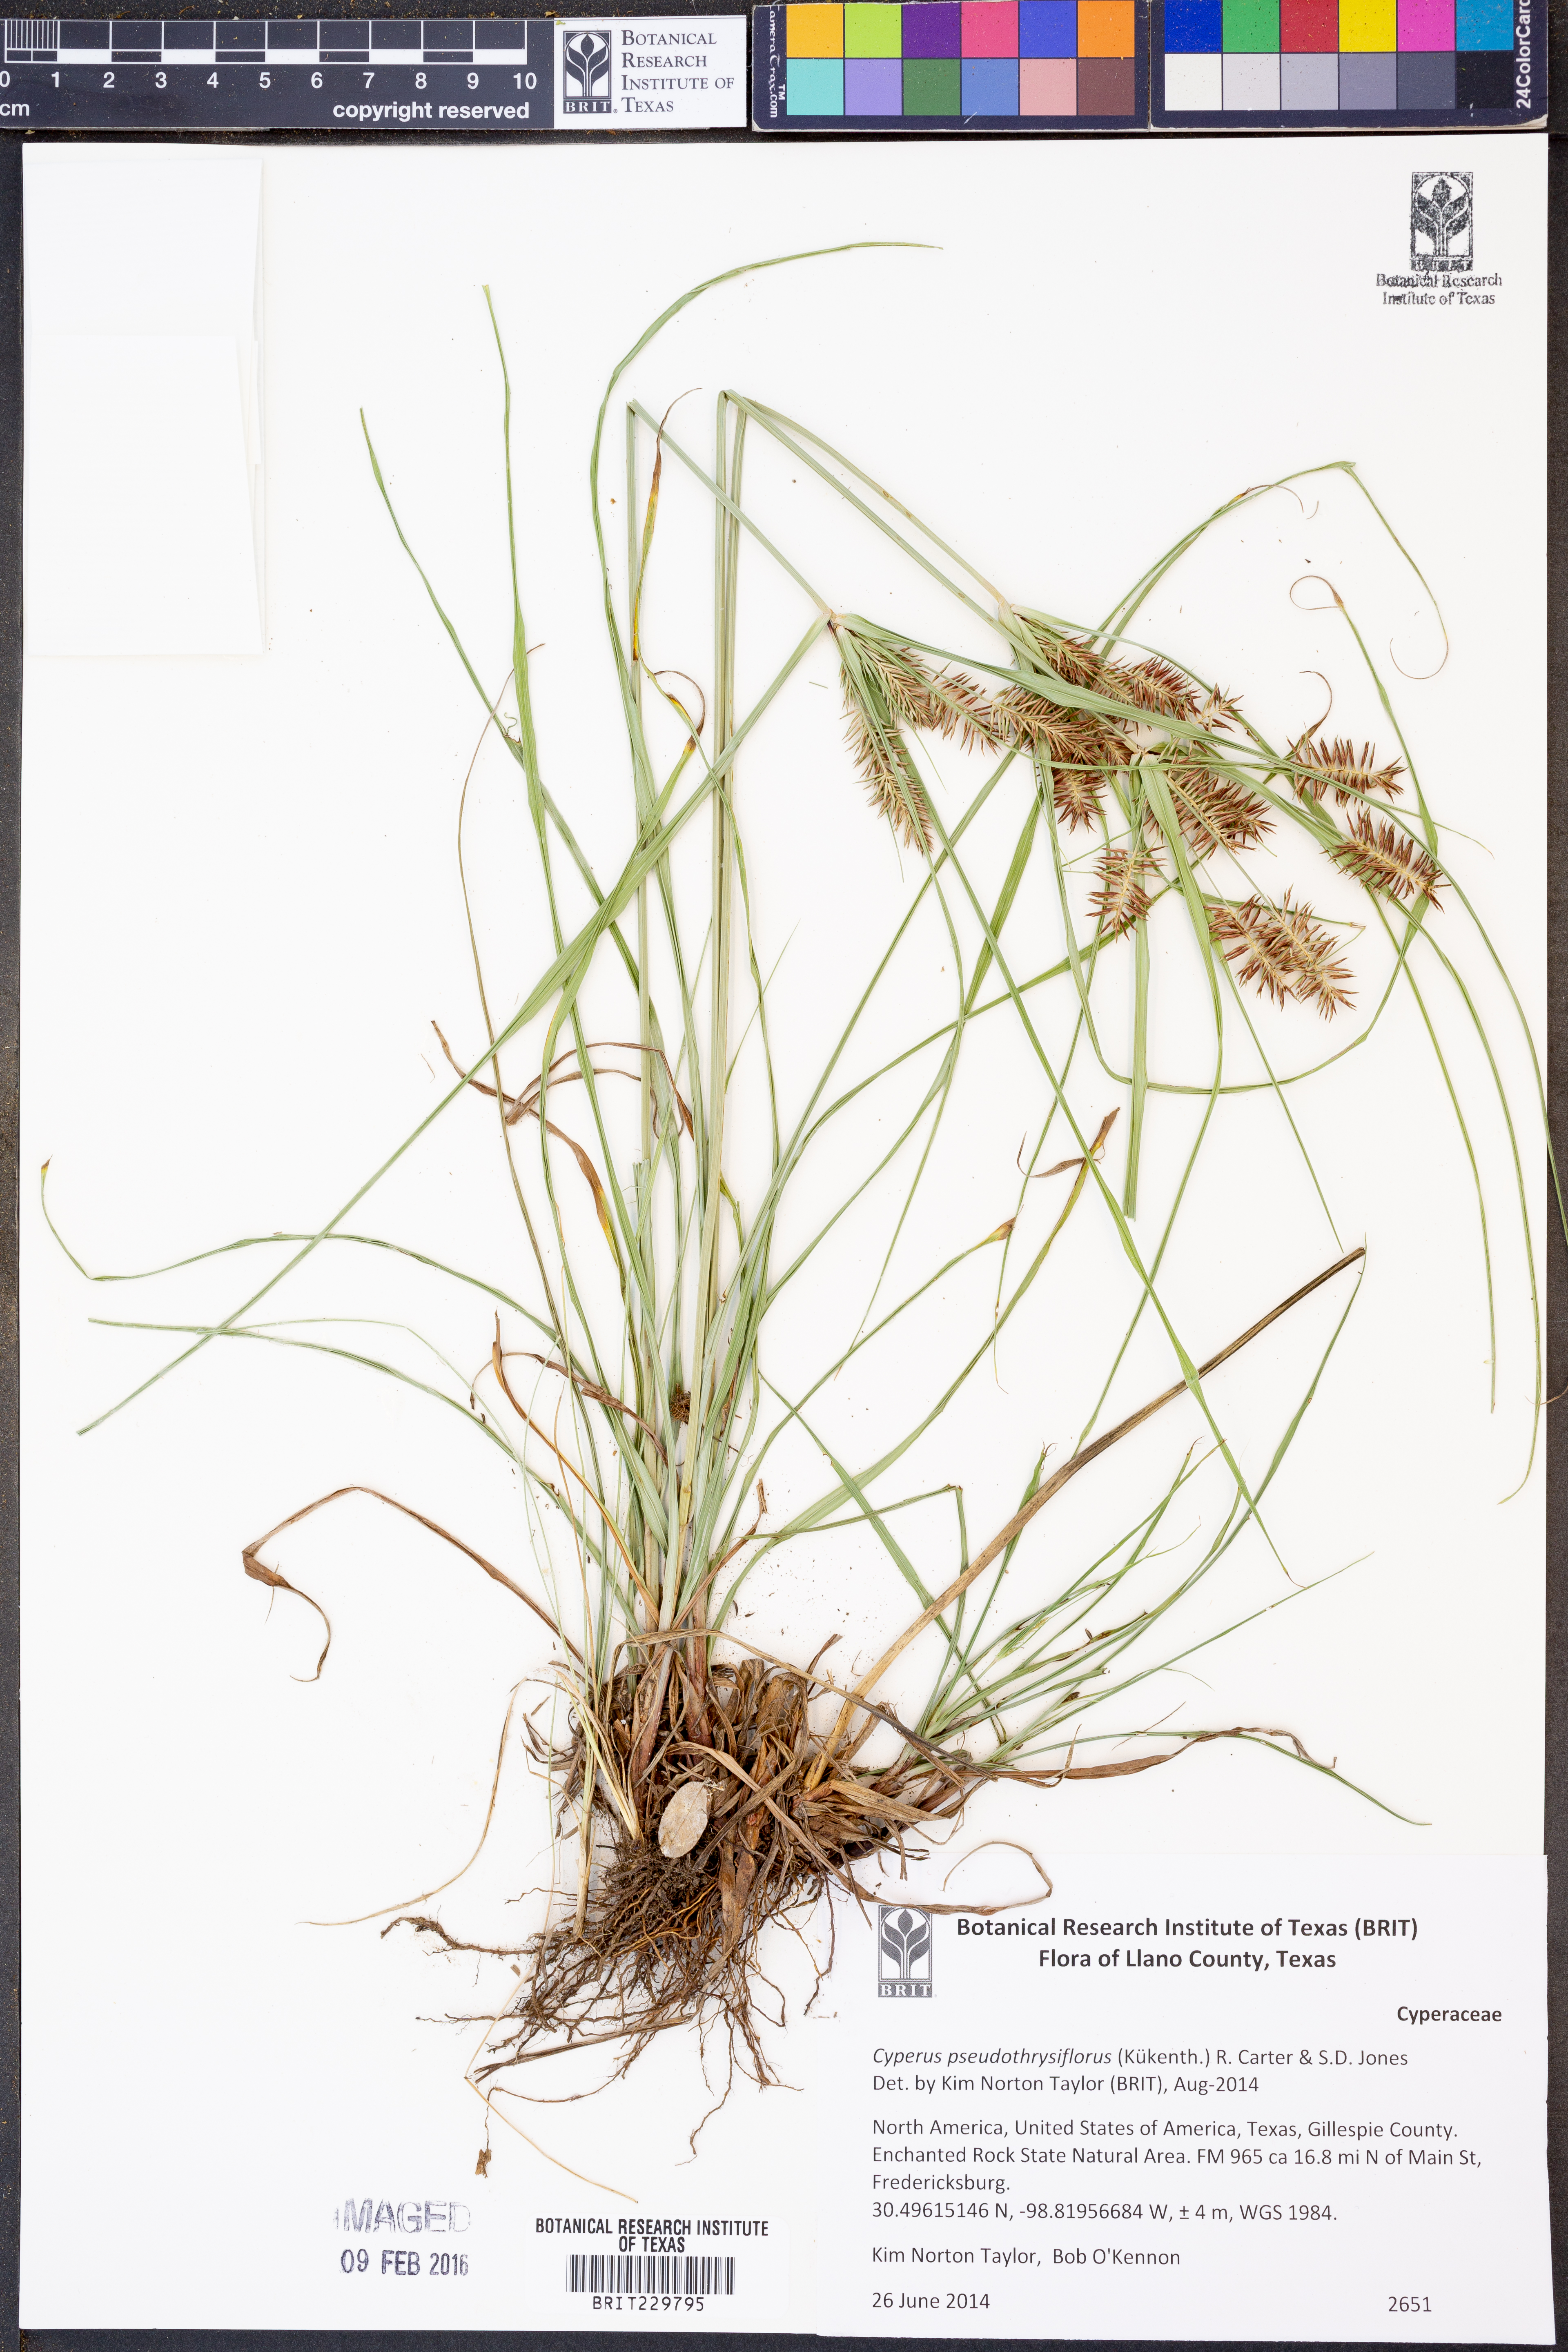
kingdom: Plantae
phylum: Tracheophyta
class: Liliopsida
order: Poales
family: Cyperaceae
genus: Cyperus
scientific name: Cyperus pseudothyrsiflorus
